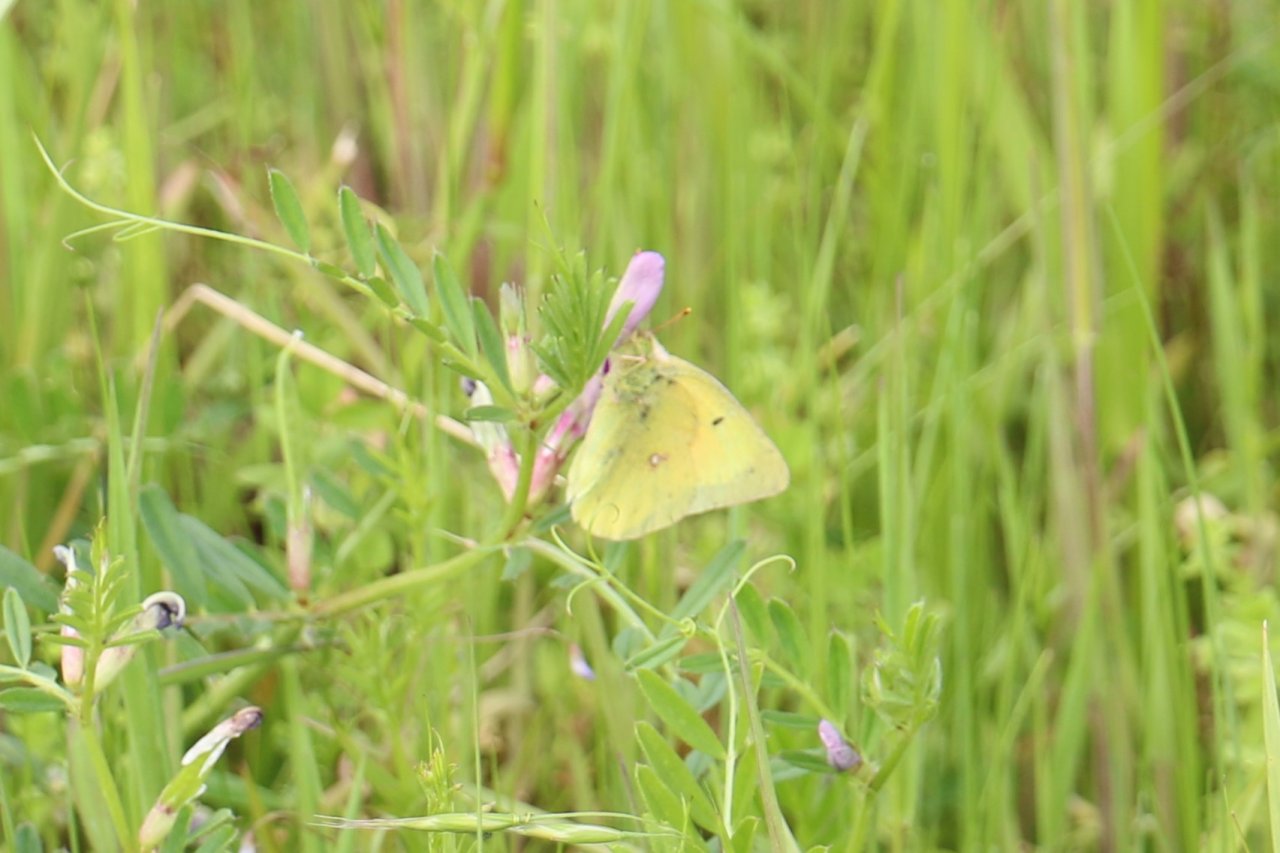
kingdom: Animalia
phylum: Arthropoda
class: Insecta
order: Lepidoptera
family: Pieridae
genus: Colias
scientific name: Colias eurytheme
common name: Orange Sulphur
